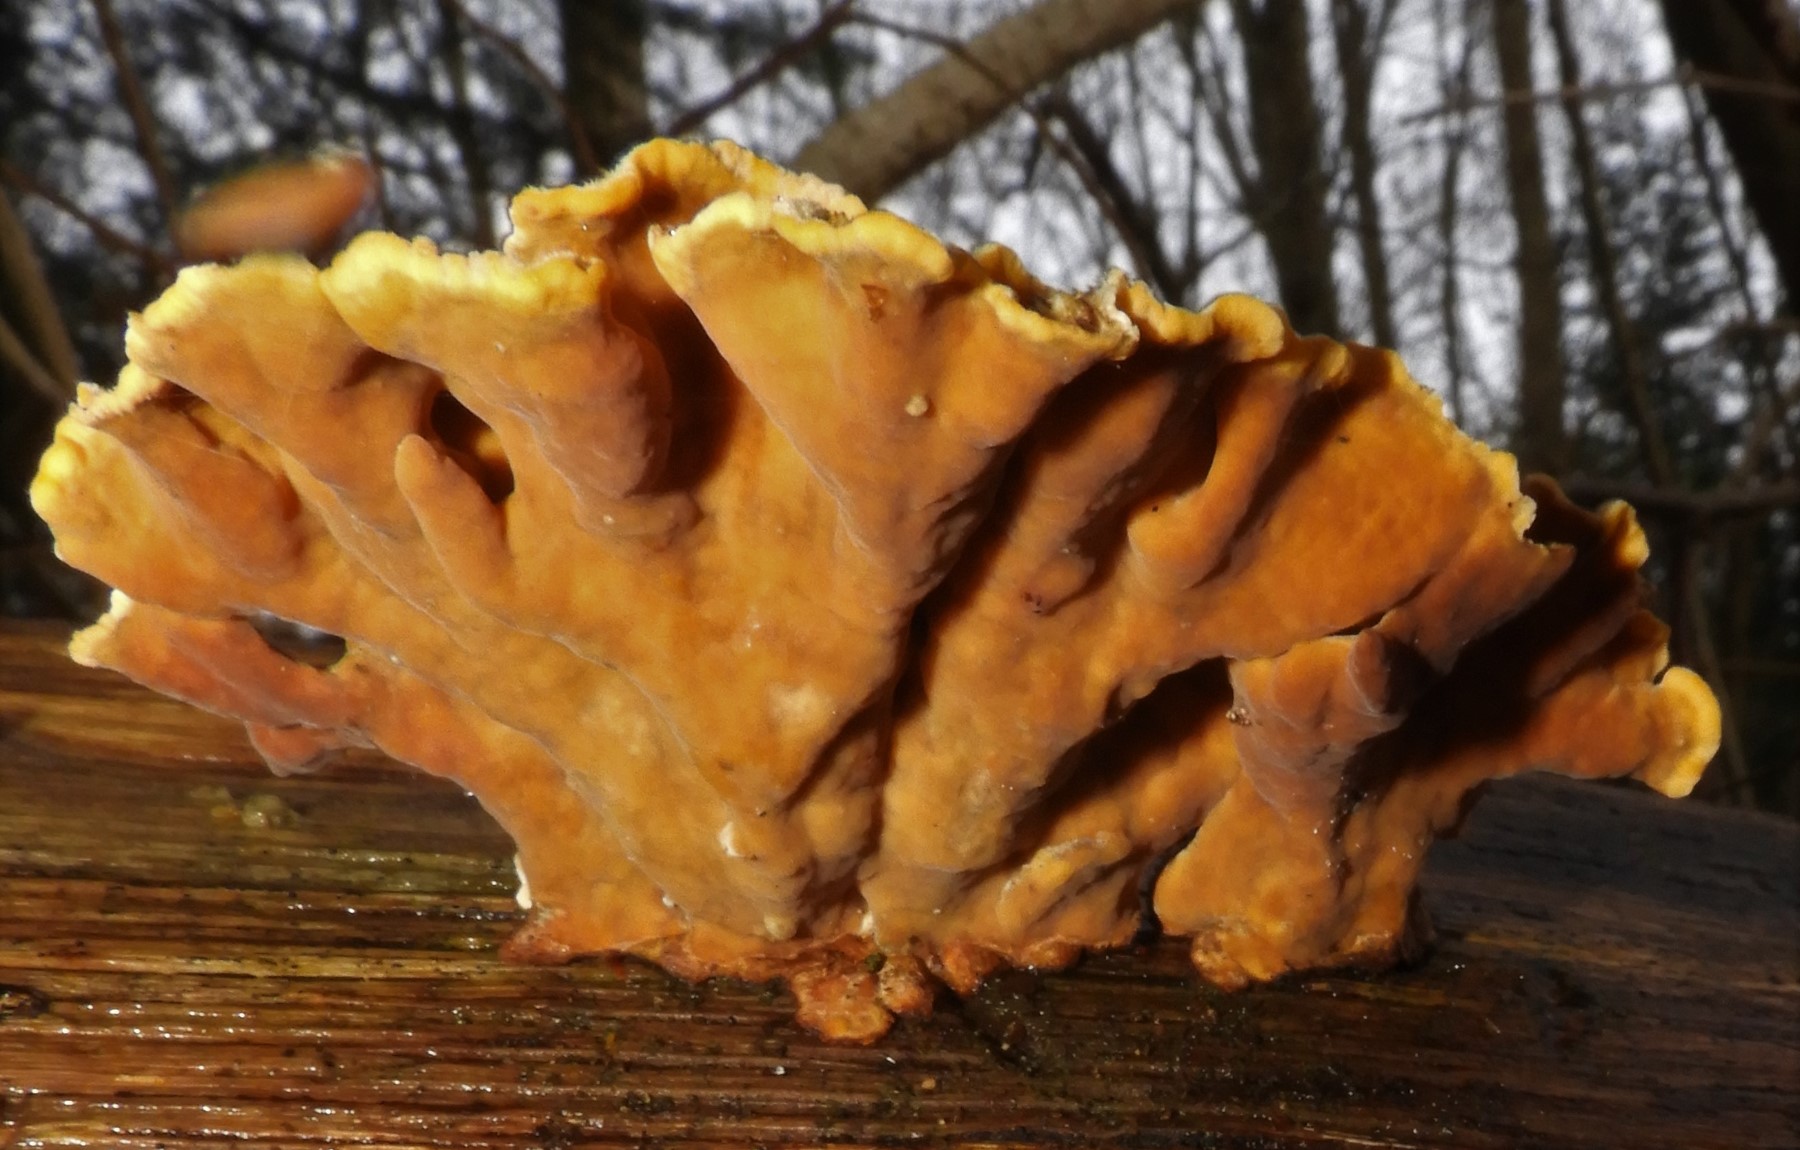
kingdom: Fungi
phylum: Basidiomycota
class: Agaricomycetes
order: Russulales
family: Stereaceae
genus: Stereum
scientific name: Stereum hirsutum
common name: håret lædersvamp
